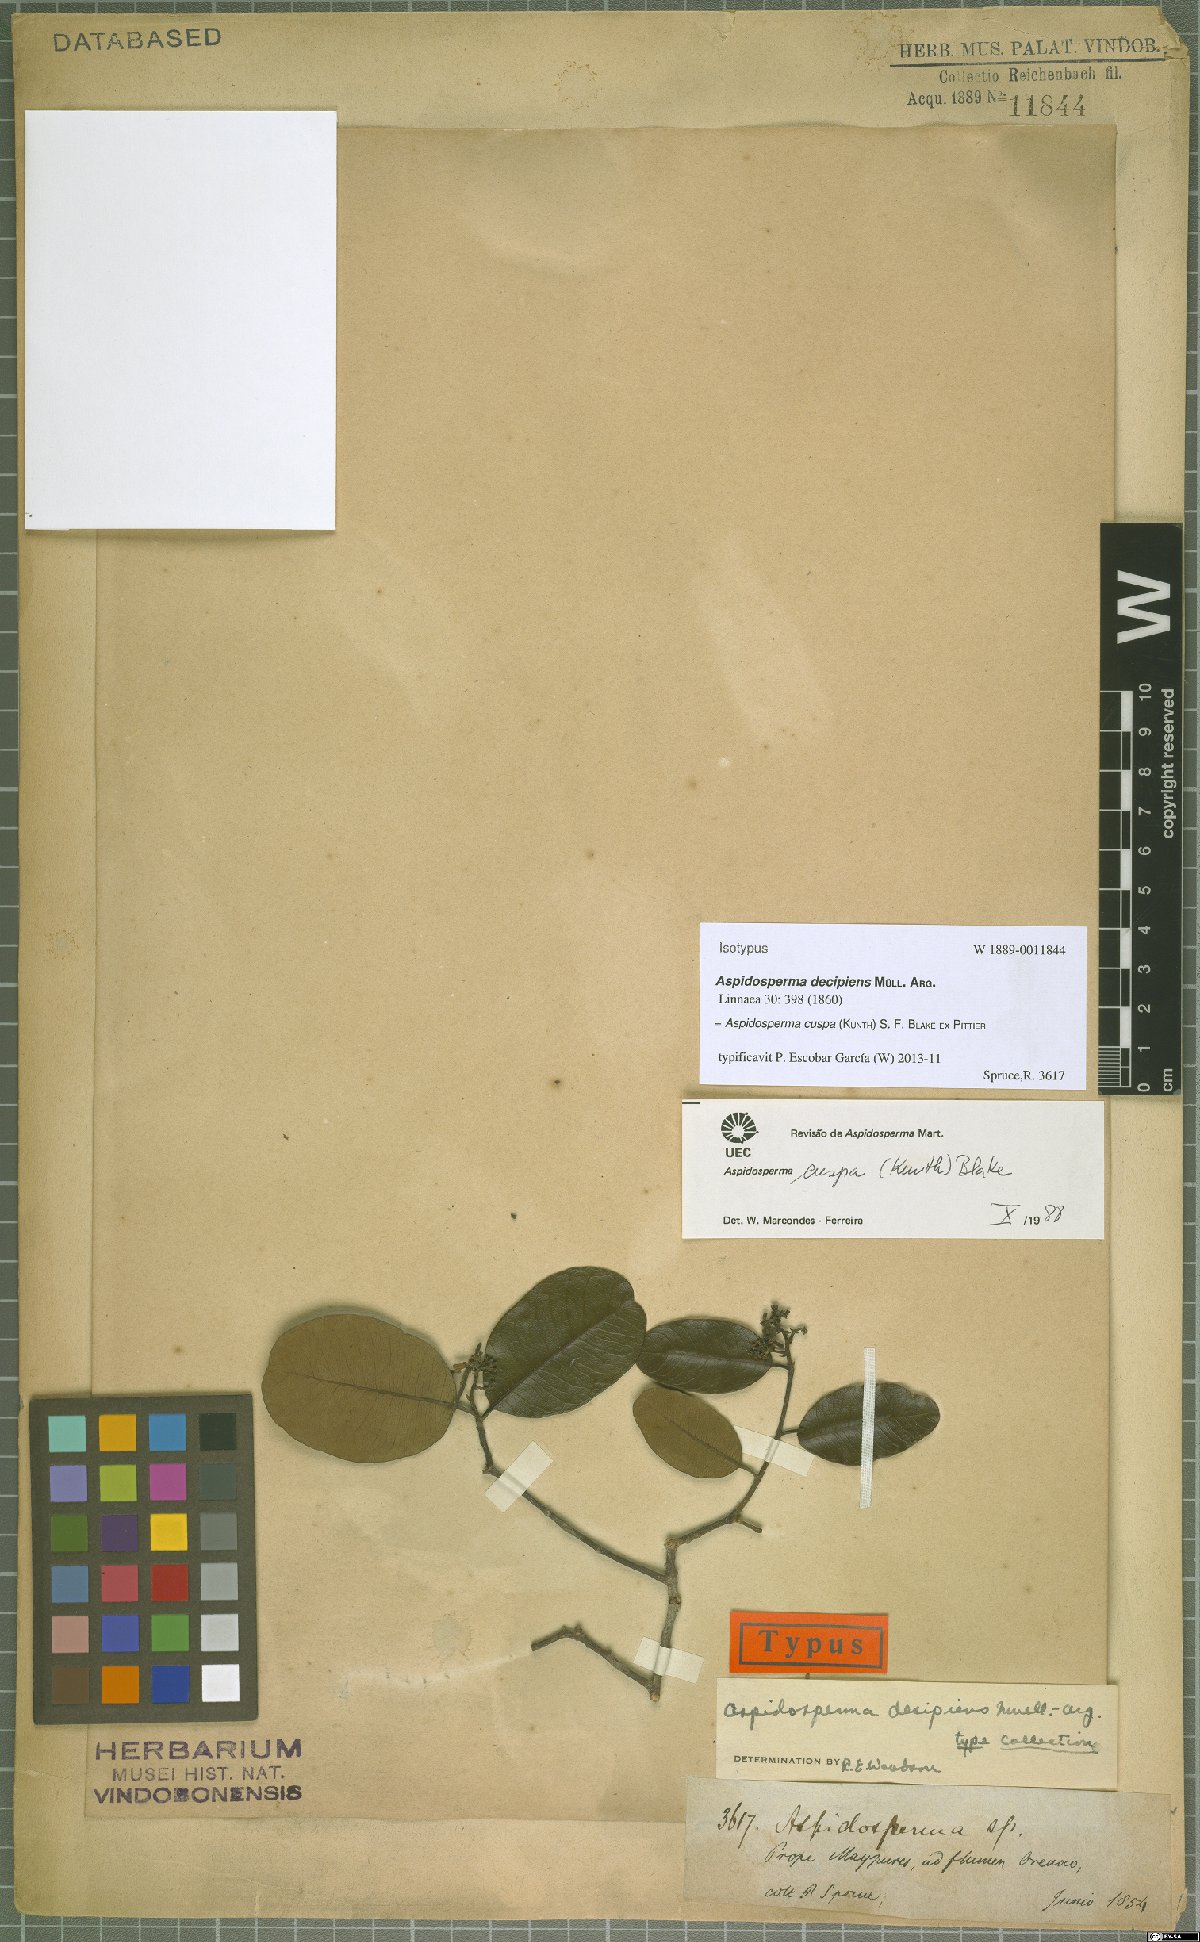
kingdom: Plantae
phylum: Tracheophyta
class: Magnoliopsida
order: Gentianales
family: Apocynaceae
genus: Aspidosperma
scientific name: Aspidosperma cuspa
